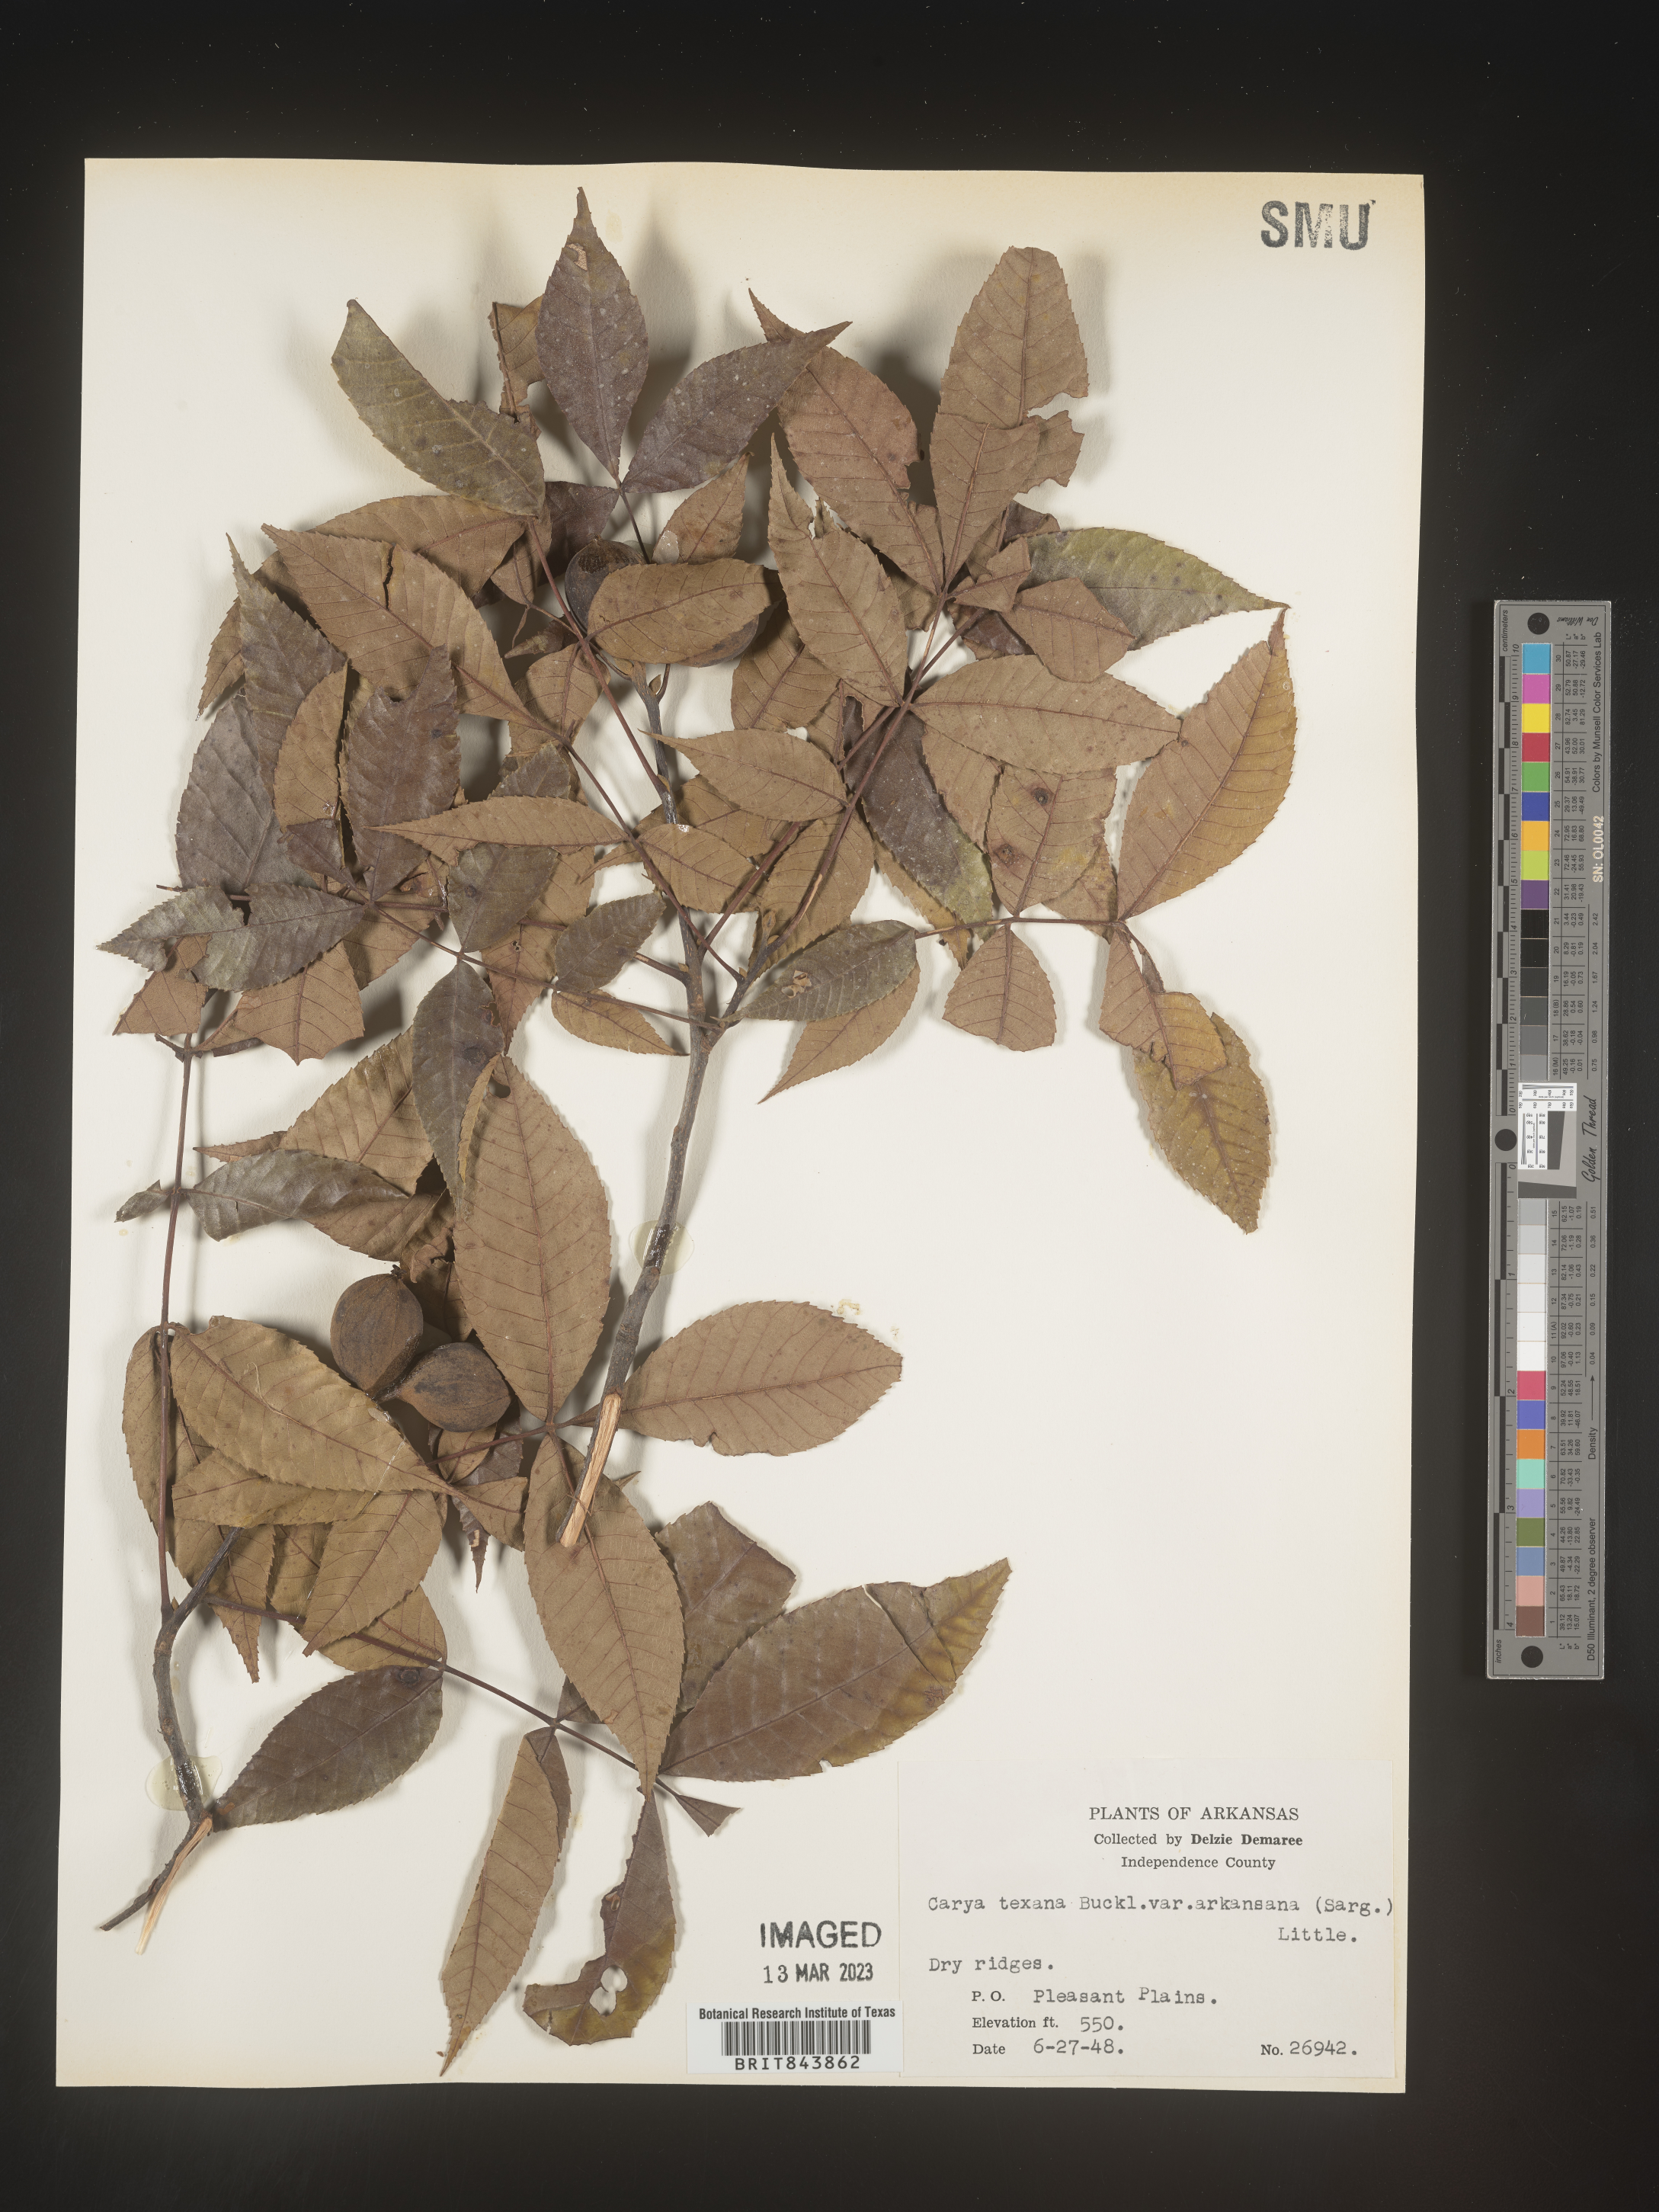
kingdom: Plantae
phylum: Tracheophyta
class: Magnoliopsida
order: Fagales
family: Juglandaceae
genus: Carya
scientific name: Carya texana
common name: Black hickory
